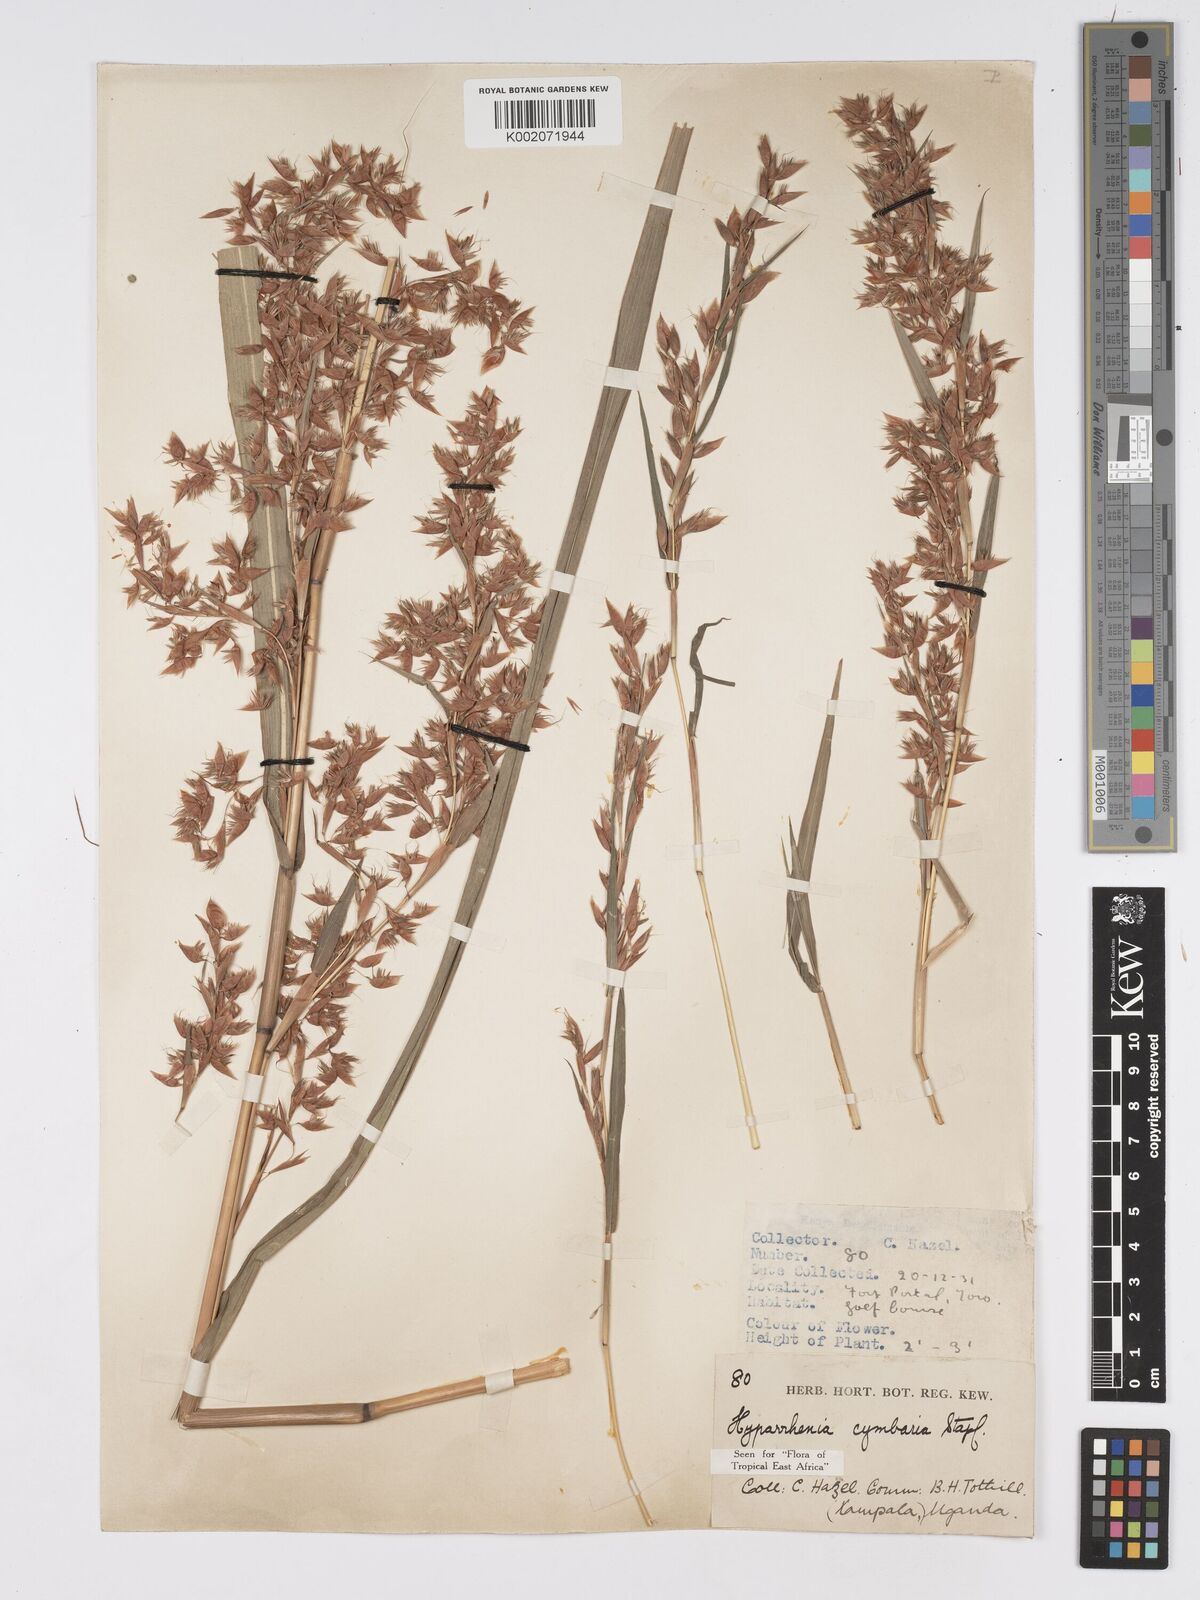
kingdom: Plantae
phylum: Tracheophyta
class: Liliopsida
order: Poales
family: Poaceae
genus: Hyparrhenia
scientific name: Hyparrhenia cymbaria
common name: Boat thatching grass
